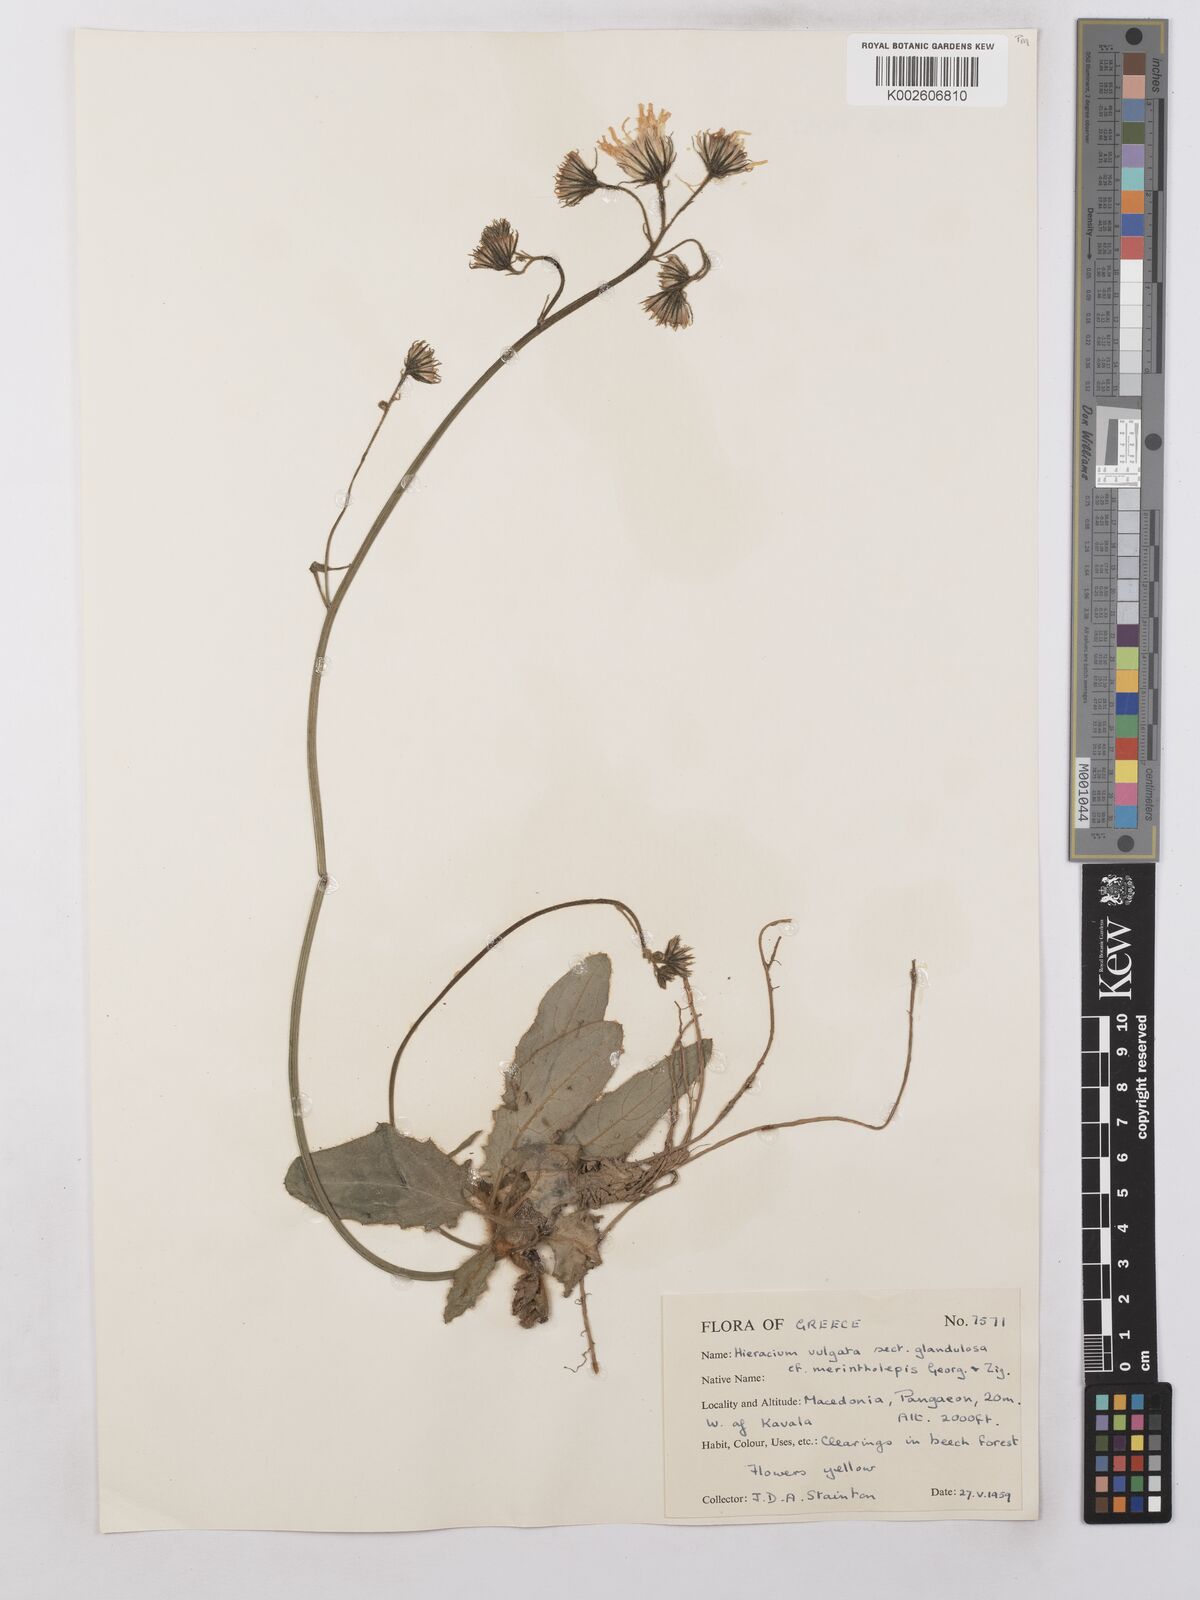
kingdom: Plantae
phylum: Tracheophyta
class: Magnoliopsida
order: Asterales
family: Asteraceae
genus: Hieracium
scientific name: Hieracium lachenalii
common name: Common hawkweed
